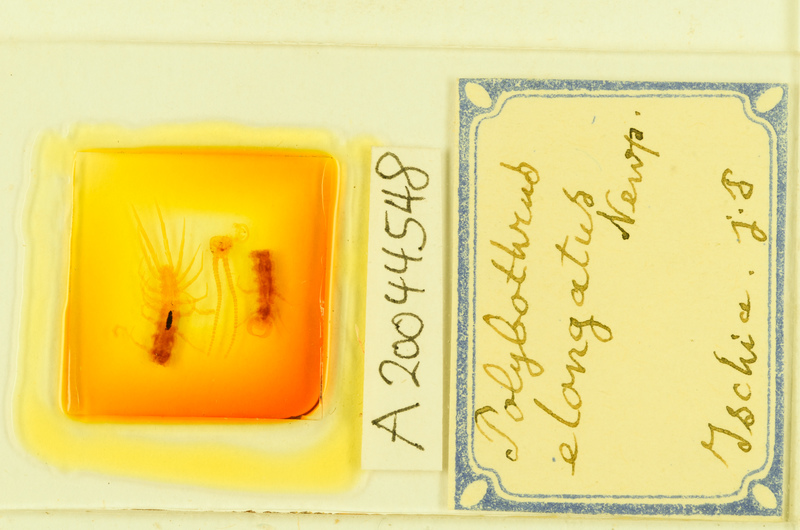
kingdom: Animalia
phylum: Arthropoda
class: Chilopoda
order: Lithobiomorpha
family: Lithobiidae
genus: Polybothrus
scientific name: Polybothrus
